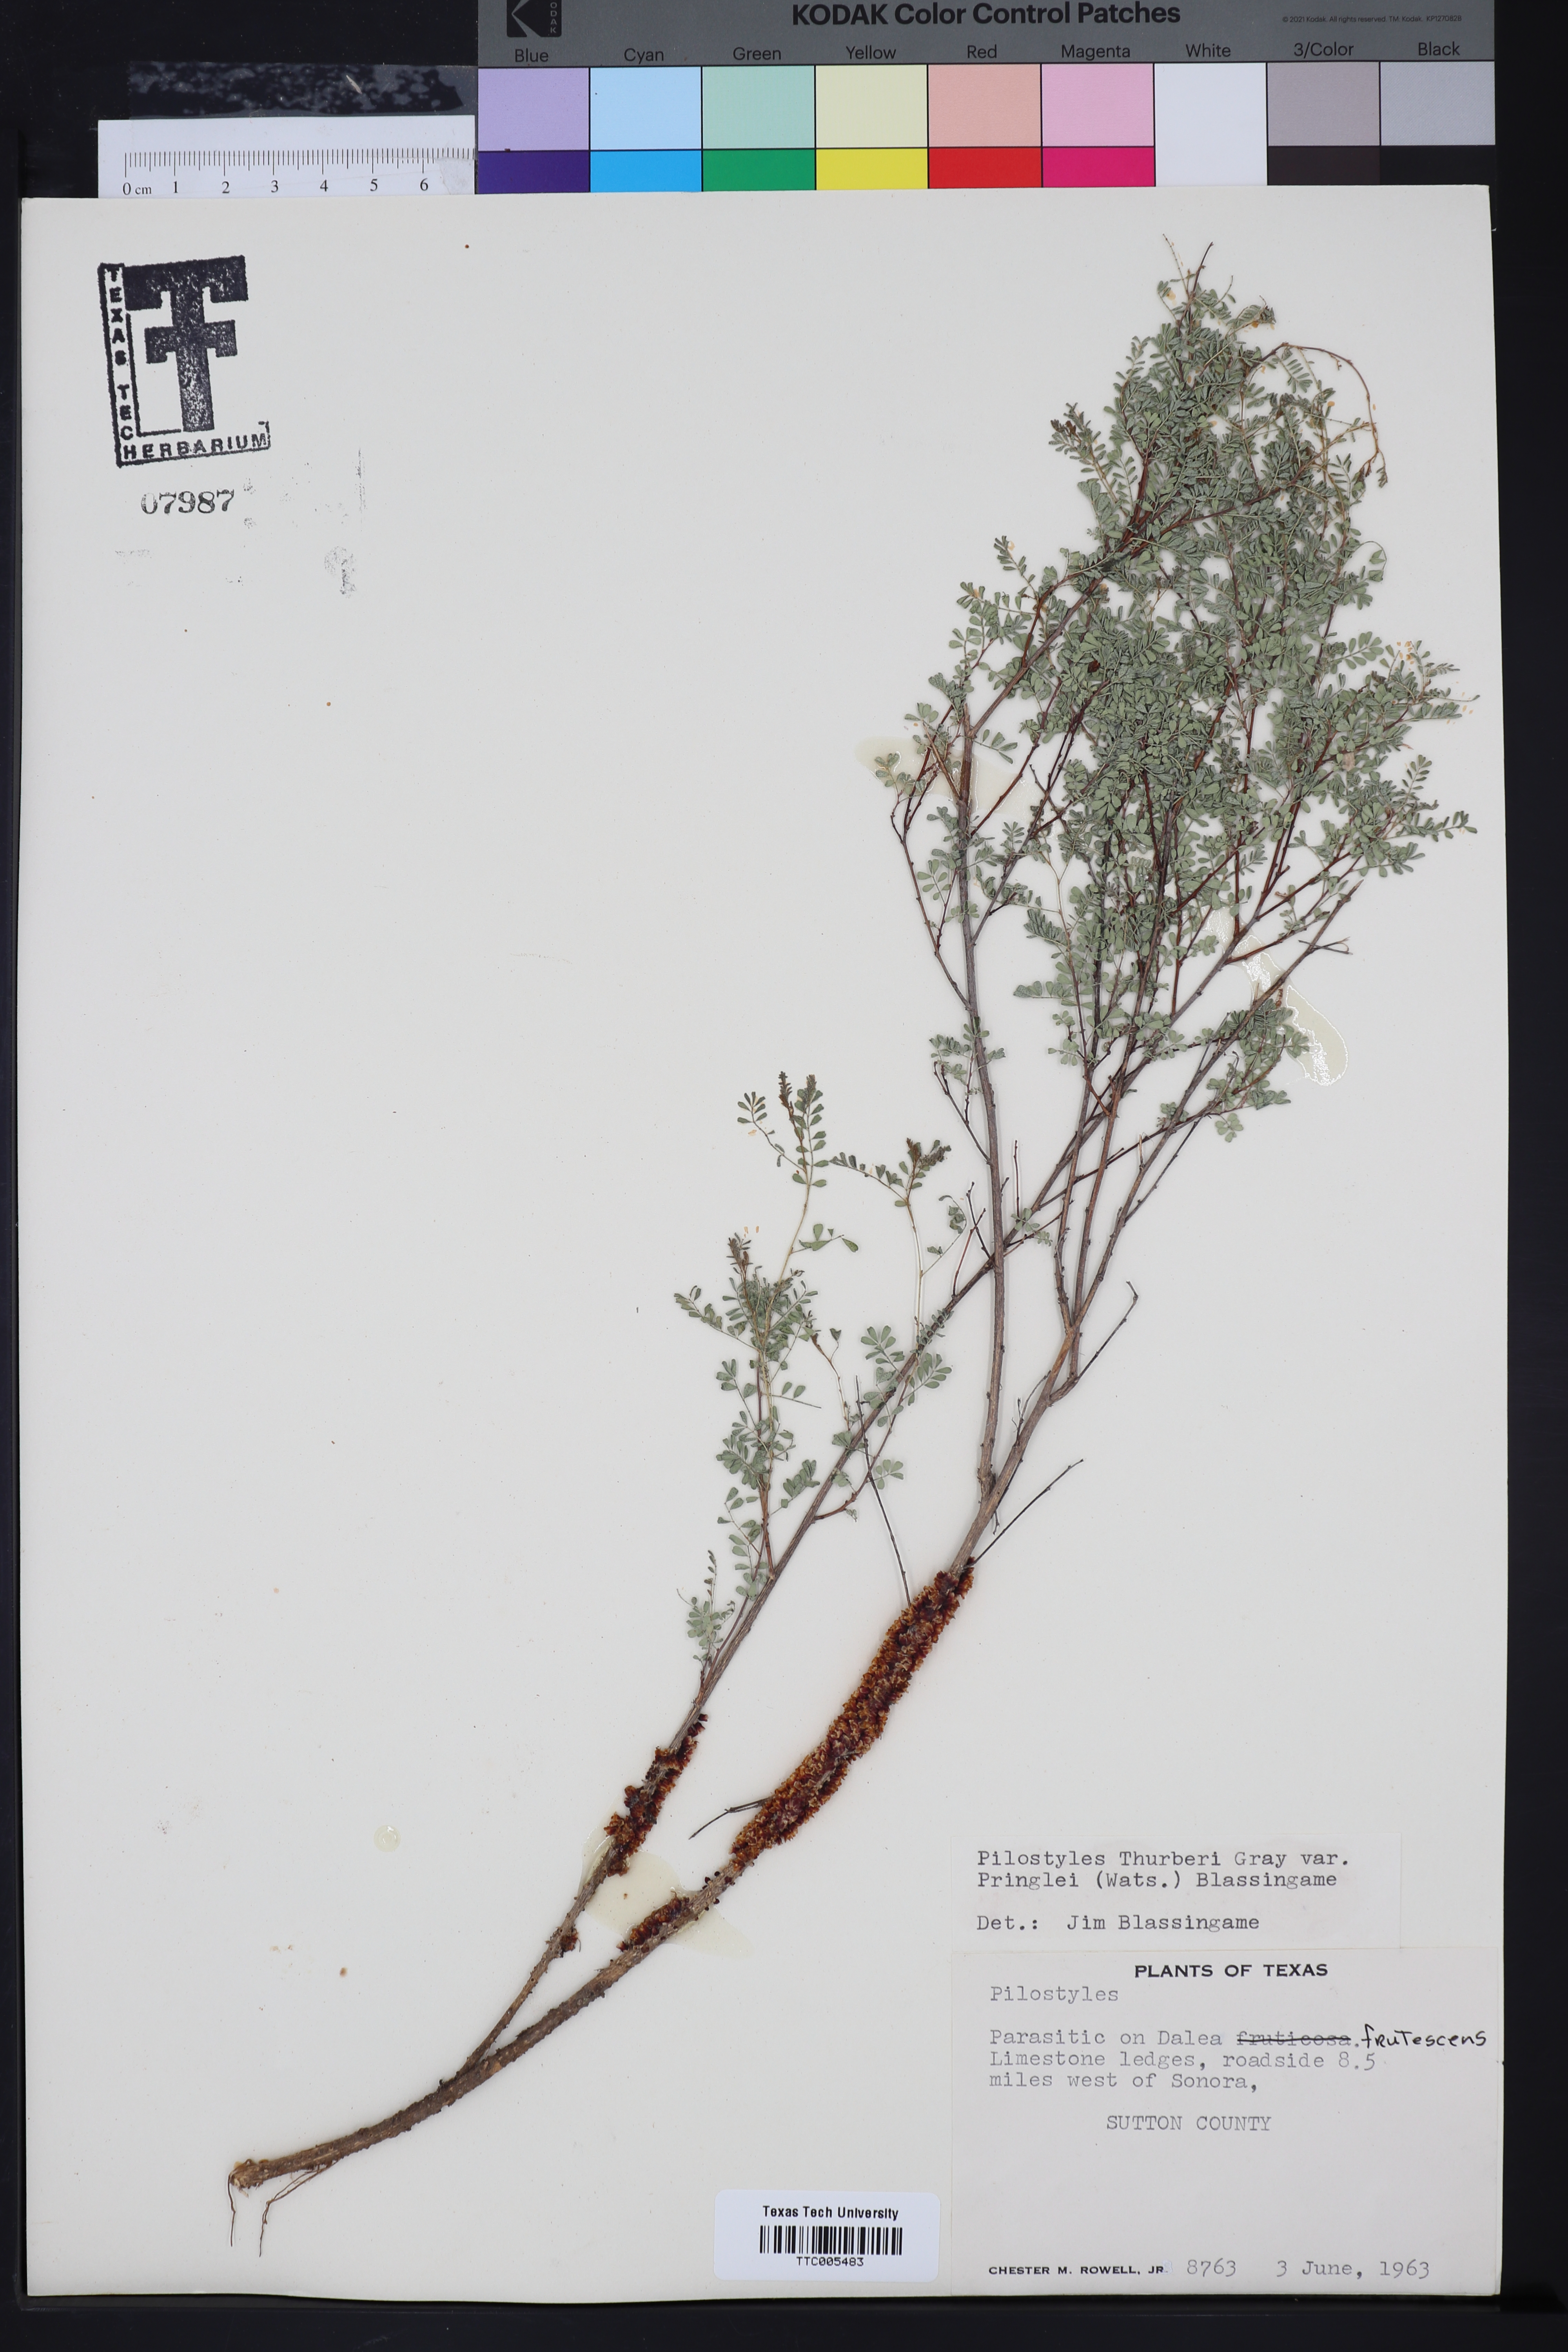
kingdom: Plantae
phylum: Tracheophyta
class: Magnoliopsida
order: Cucurbitales
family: Apodanthaceae
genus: Pilostyles
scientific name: Pilostyles
